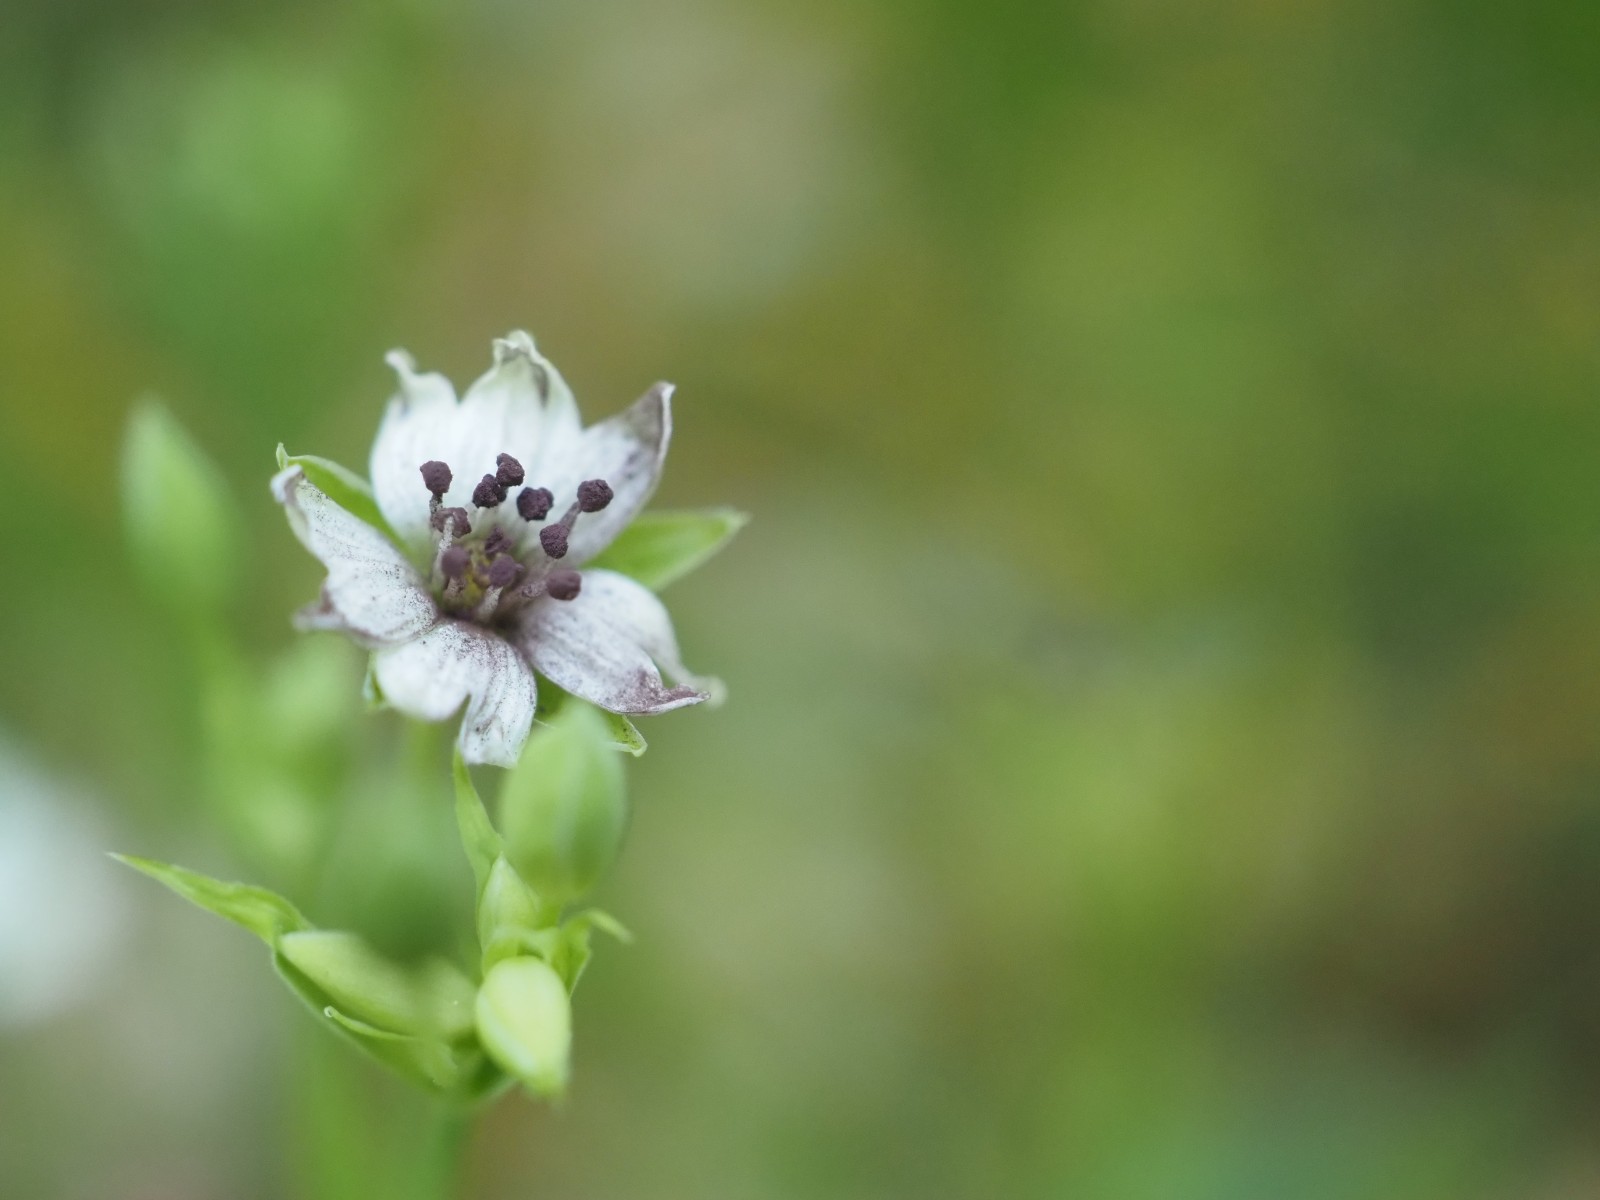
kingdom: Fungi
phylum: Basidiomycota
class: Microbotryomycetes
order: Microbotryales
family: Microbotryaceae
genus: Microbotryum
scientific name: Microbotryum stellariae
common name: fladstjerne-støvbladrust
